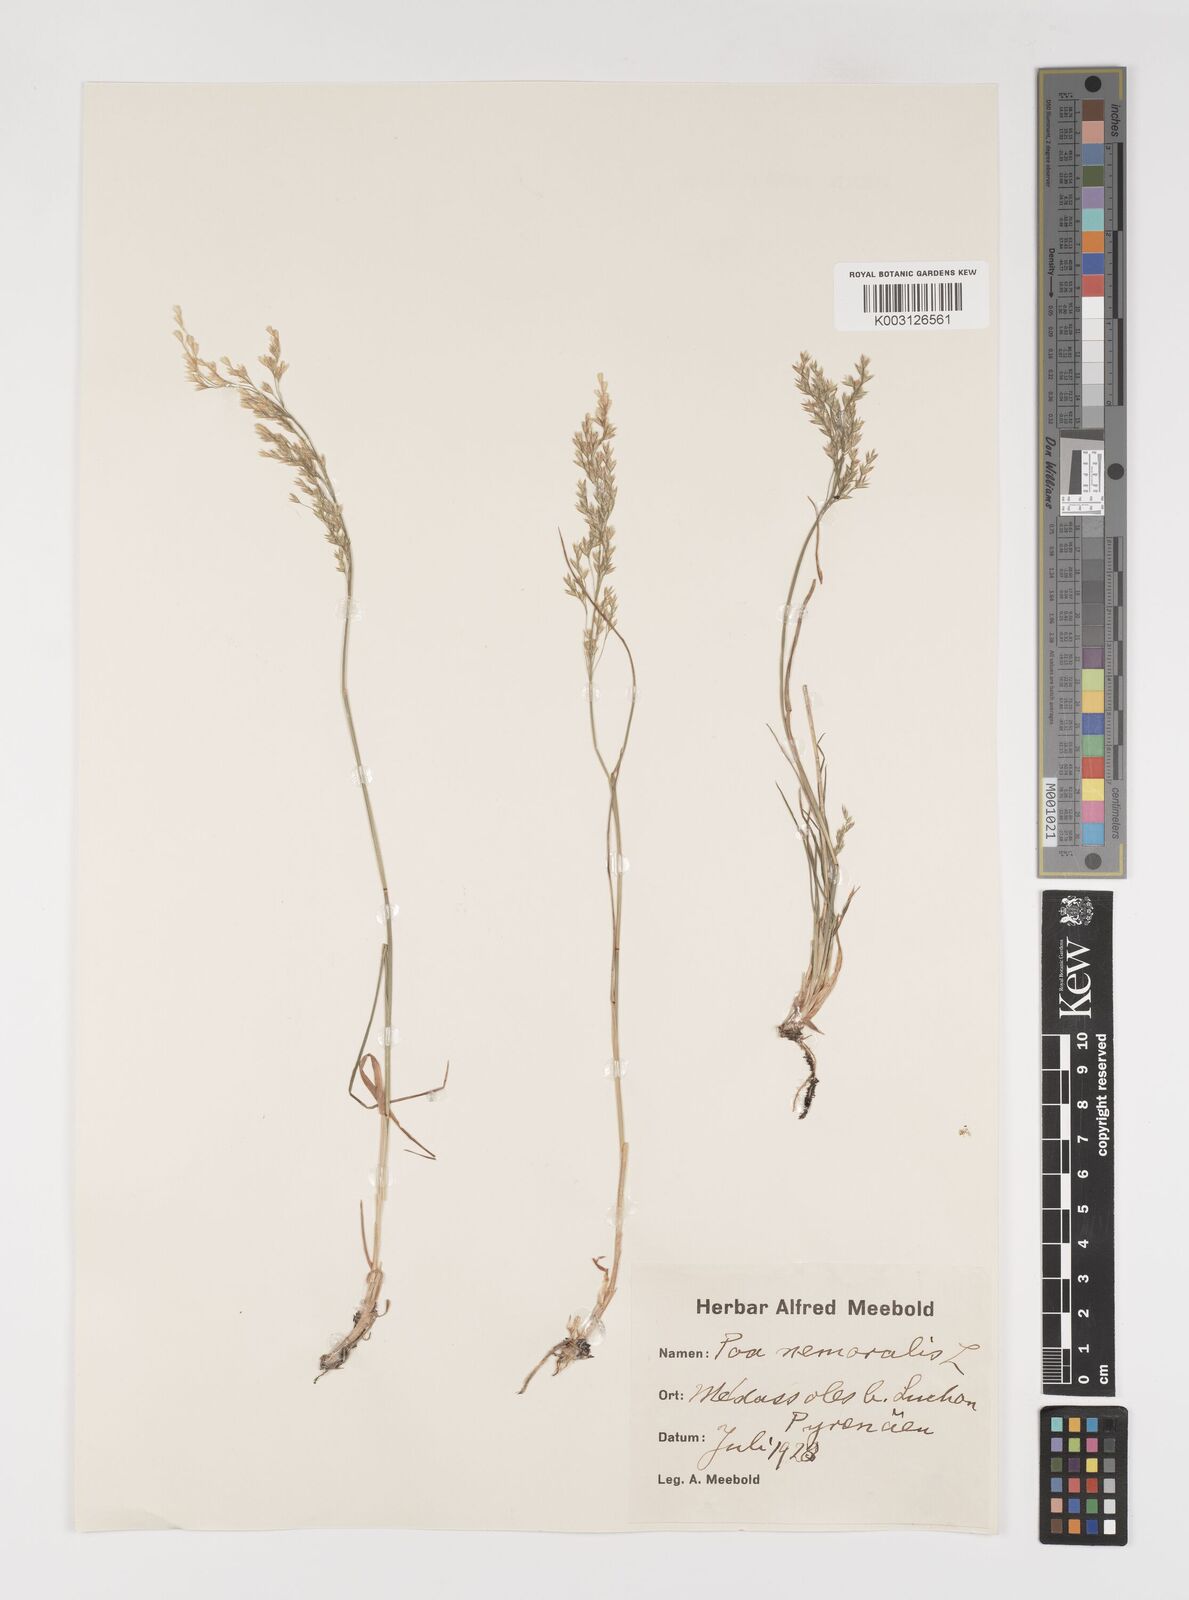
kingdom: Plantae
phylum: Tracheophyta
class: Liliopsida
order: Poales
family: Poaceae
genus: Poa
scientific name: Poa nemoralis
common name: Wood bluegrass
